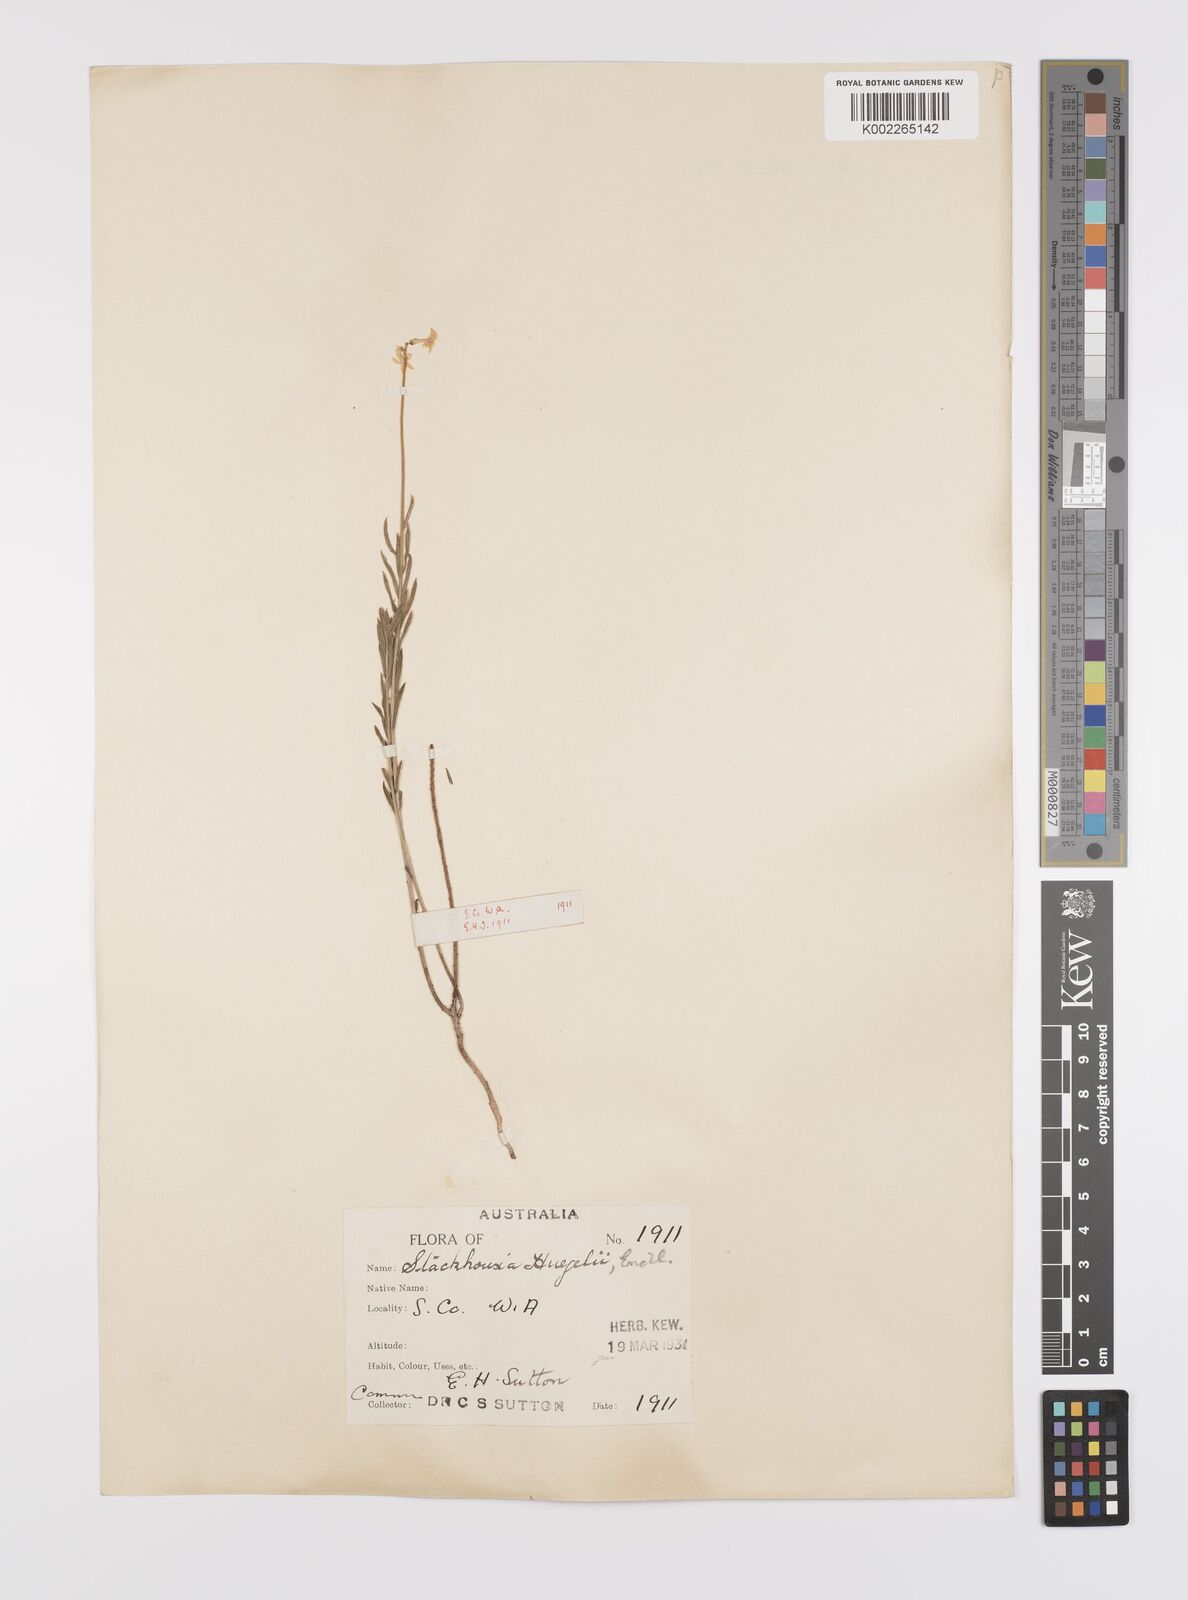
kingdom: Plantae
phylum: Tracheophyta
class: Magnoliopsida
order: Celastrales
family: Celastraceae
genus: Stackhousia
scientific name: Stackhousia monogyna
